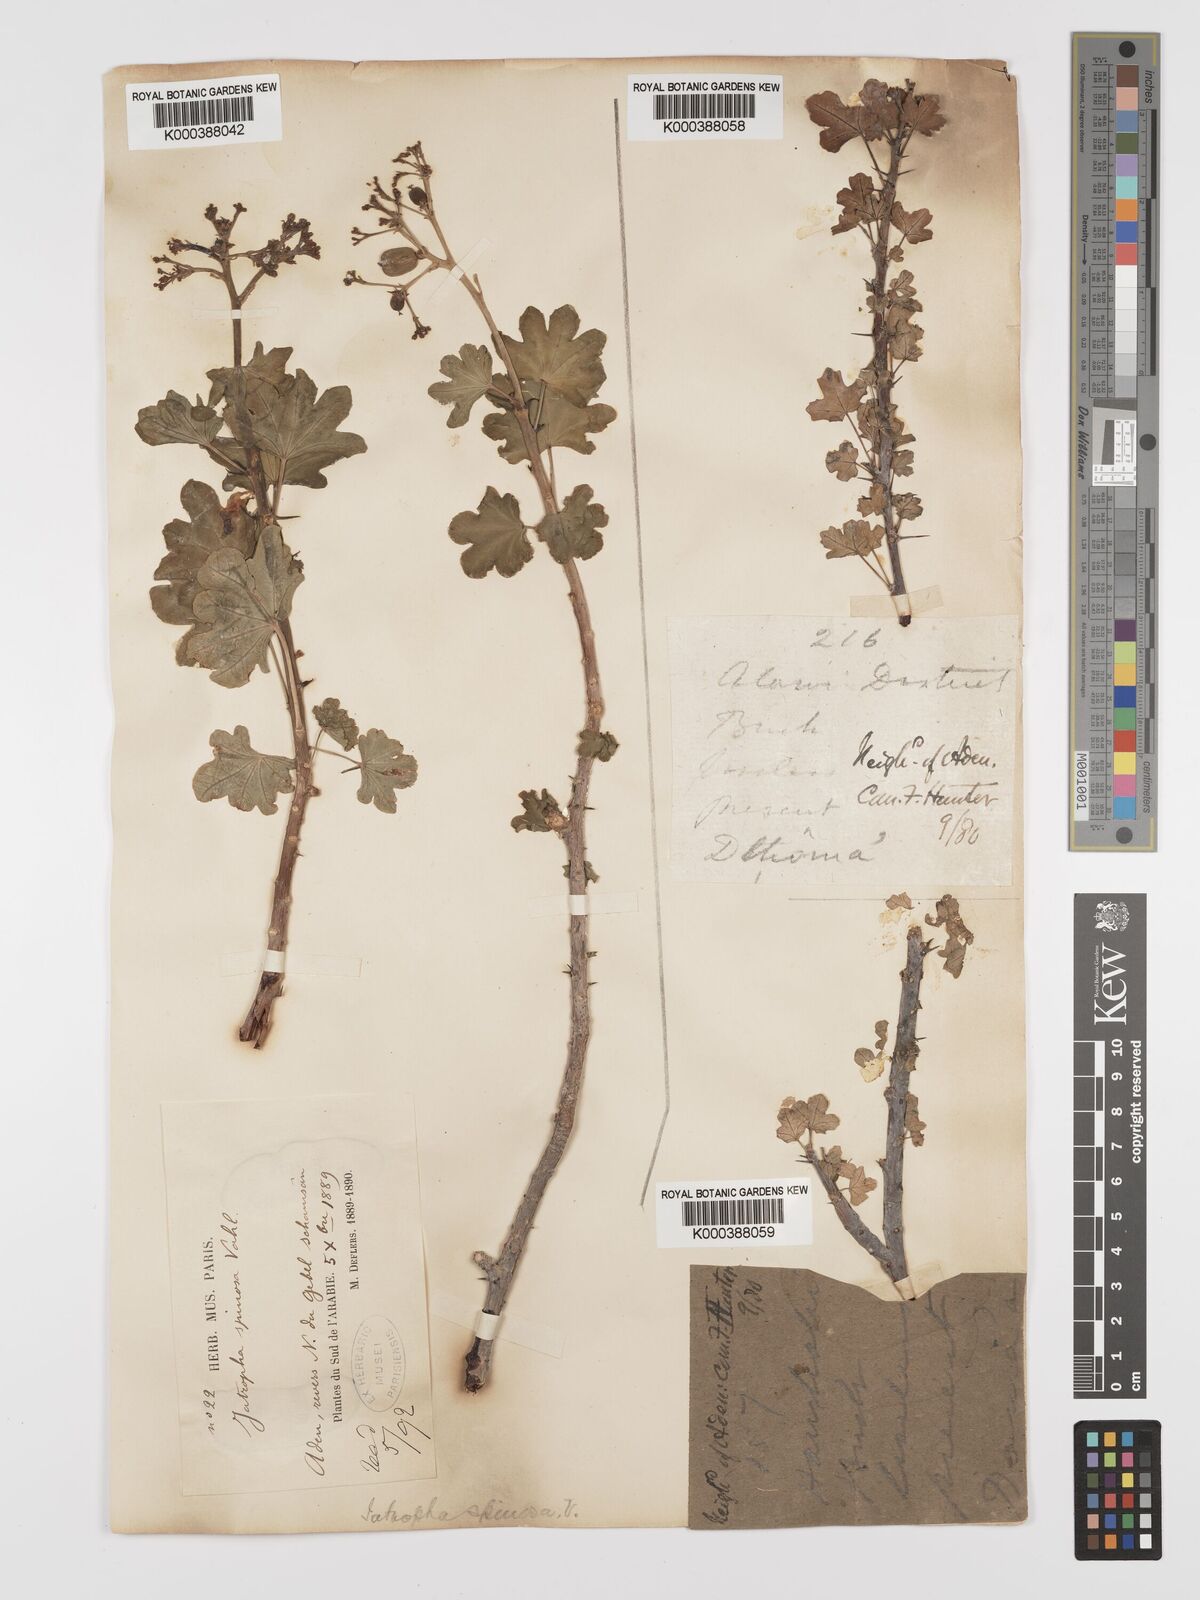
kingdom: Plantae
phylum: Tracheophyta
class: Magnoliopsida
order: Malpighiales
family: Euphorbiaceae
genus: Jatropha
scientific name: Jatropha spinosa
